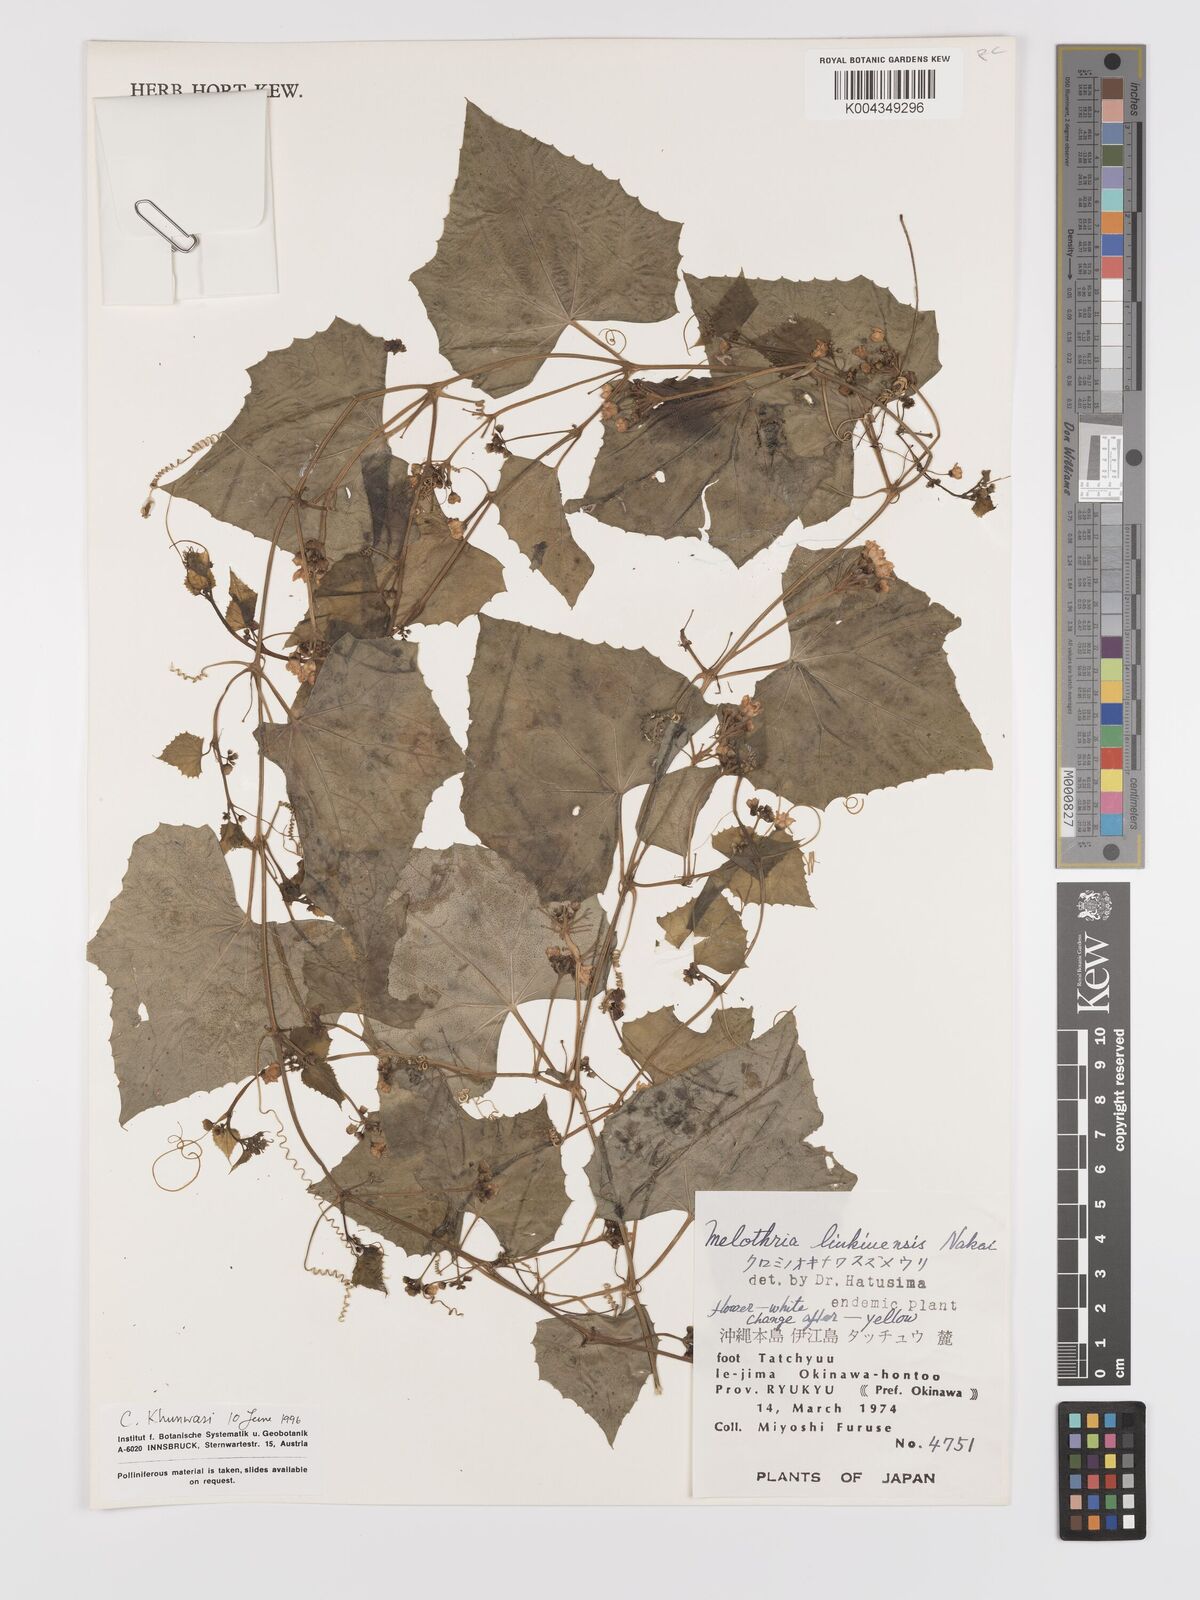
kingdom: Plantae
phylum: Tracheophyta
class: Magnoliopsida
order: Cucurbitales
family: Cucurbitaceae
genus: Zehneria
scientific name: Zehneria mucronata
